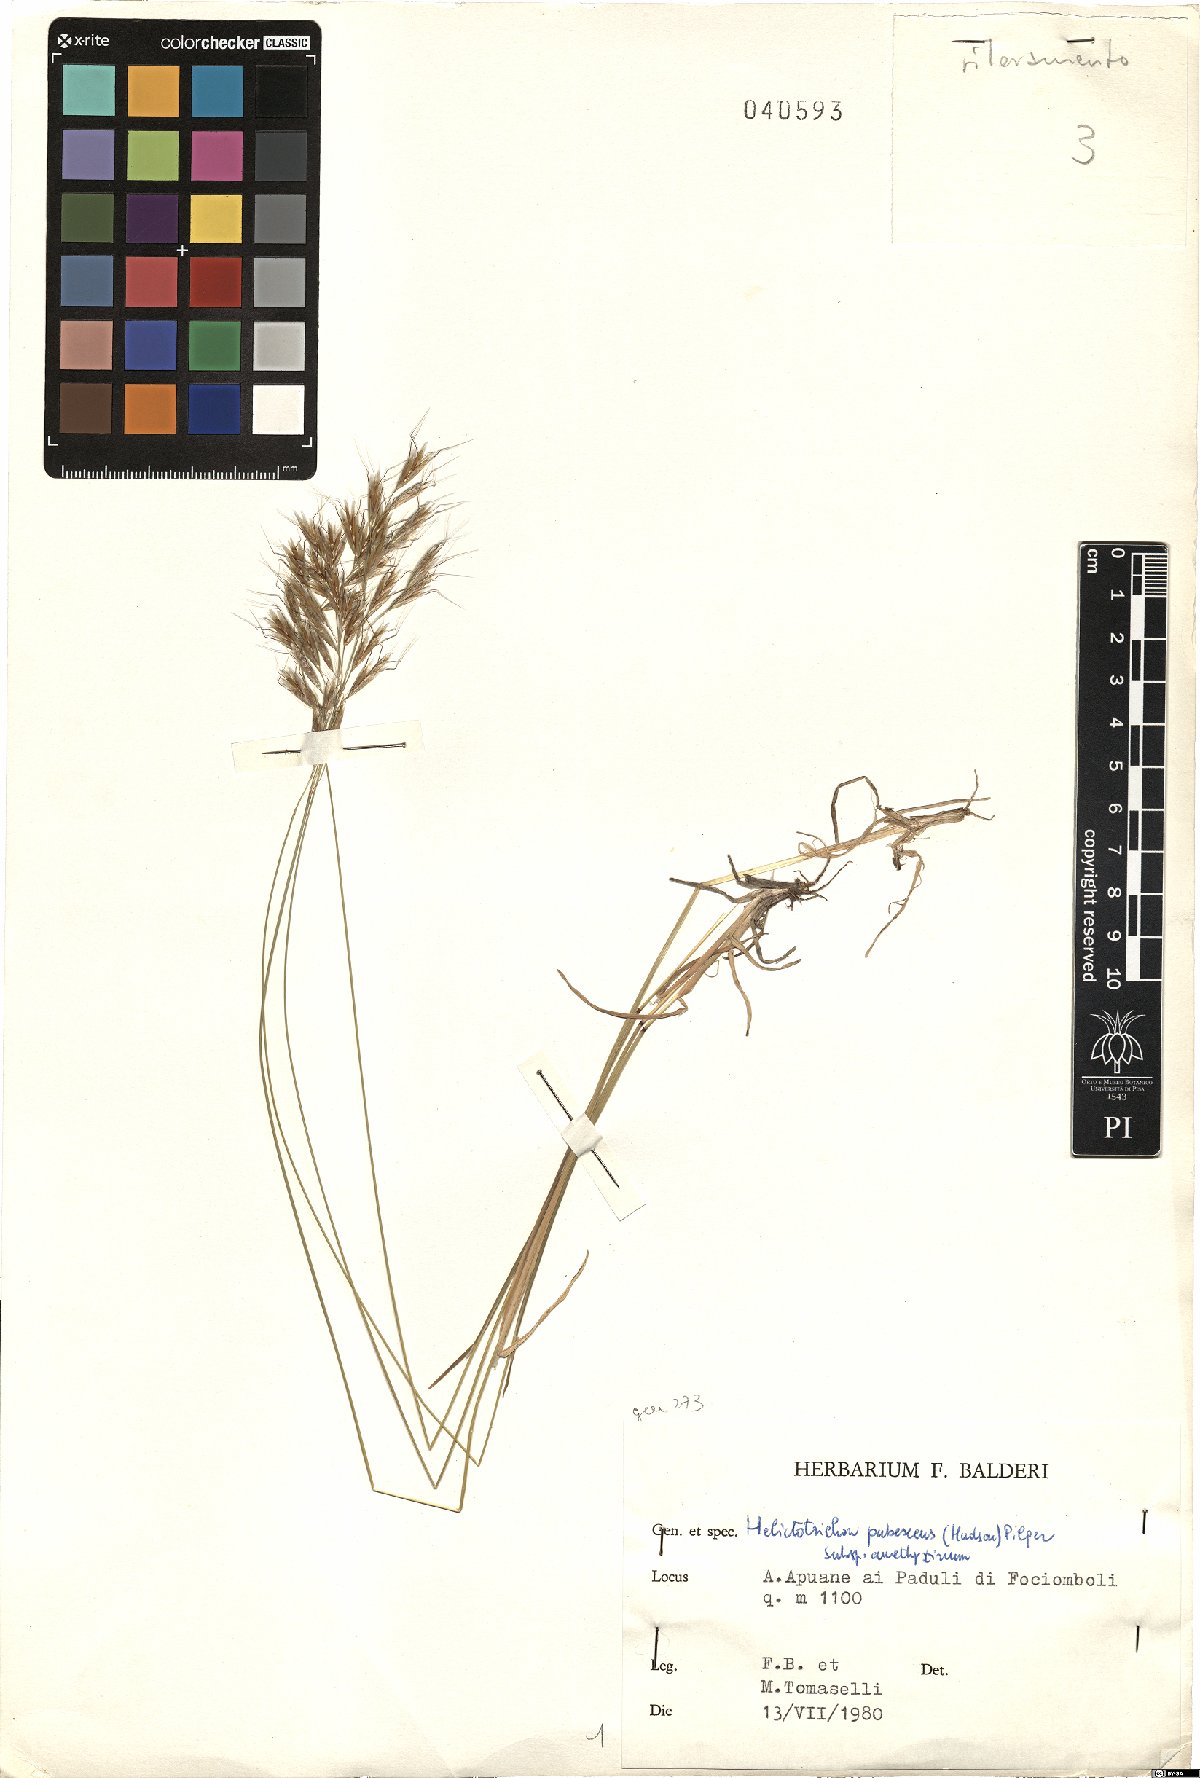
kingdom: Plantae
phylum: Tracheophyta
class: Liliopsida
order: Poales
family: Poaceae
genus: Avenula
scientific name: Avenula pubescens
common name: Downy alpine oatgrass
